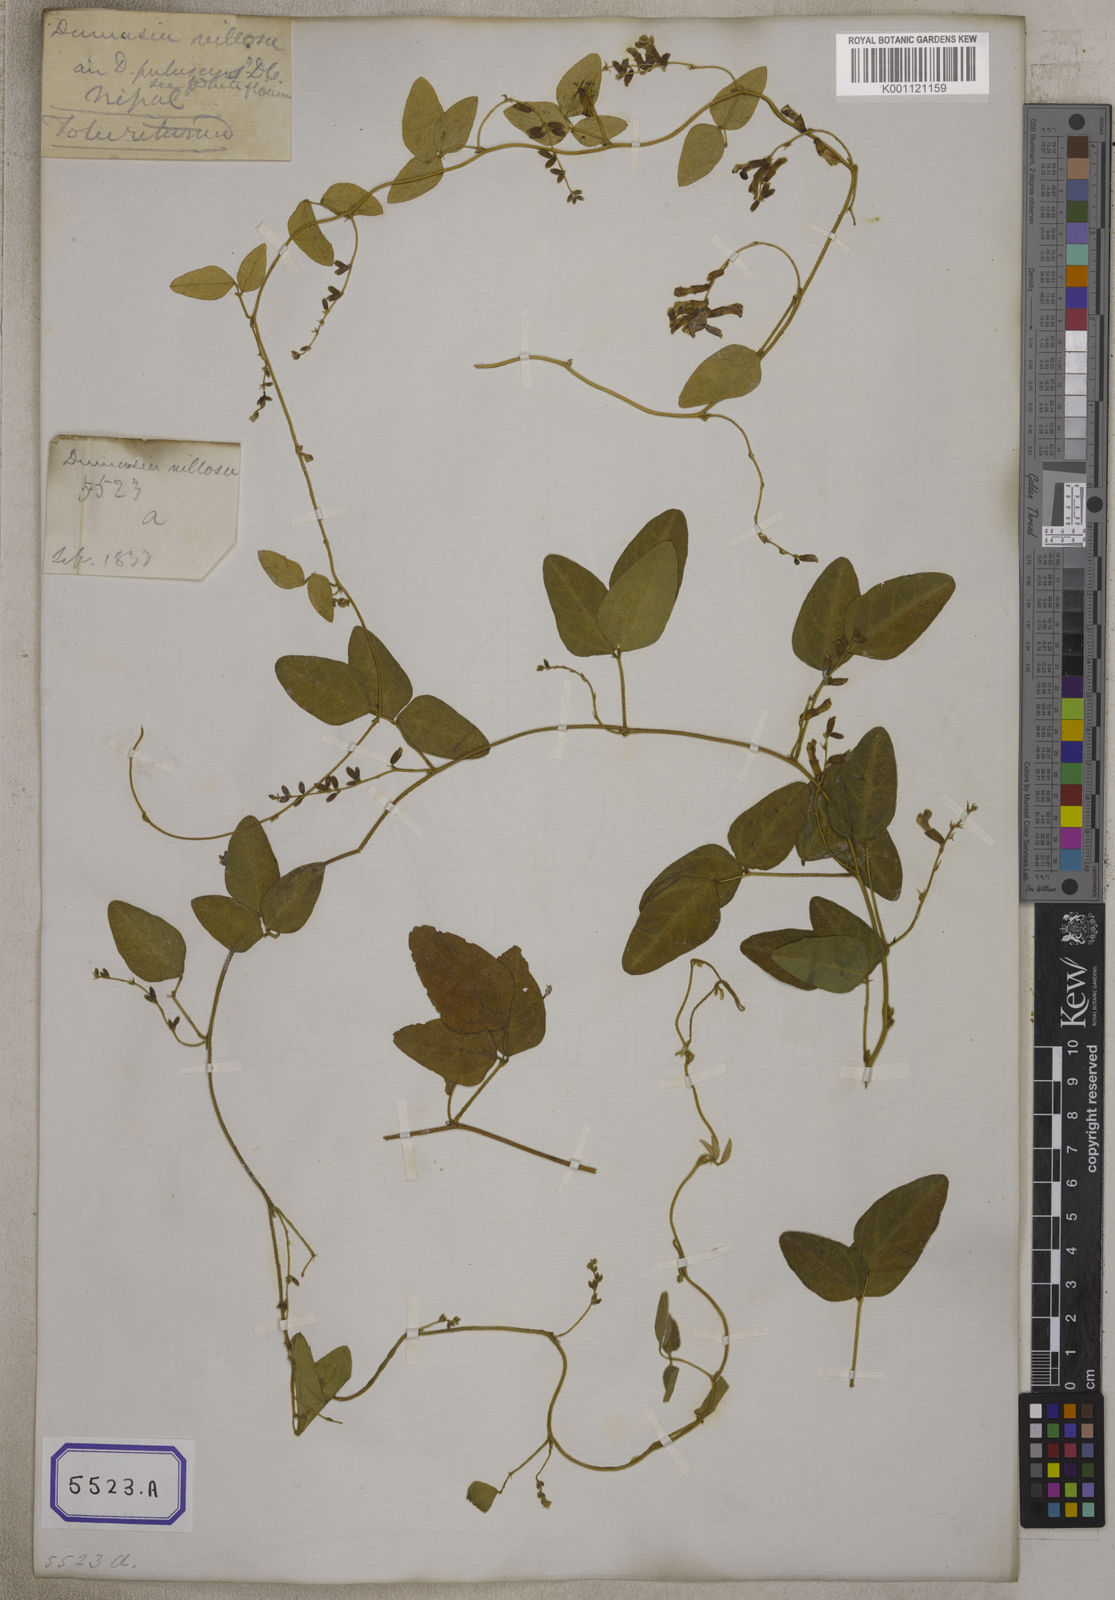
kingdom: Plantae
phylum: Tracheophyta
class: Magnoliopsida
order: Fabales
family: Fabaceae
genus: Dumasia
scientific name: Dumasia villosa
